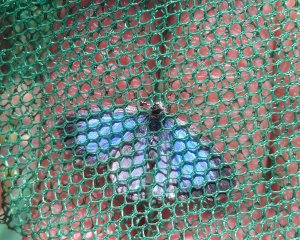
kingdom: Animalia
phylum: Arthropoda
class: Insecta
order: Lepidoptera
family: Lycaenidae
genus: Celastrina
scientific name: Celastrina lucia
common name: Northern Spring Azure
